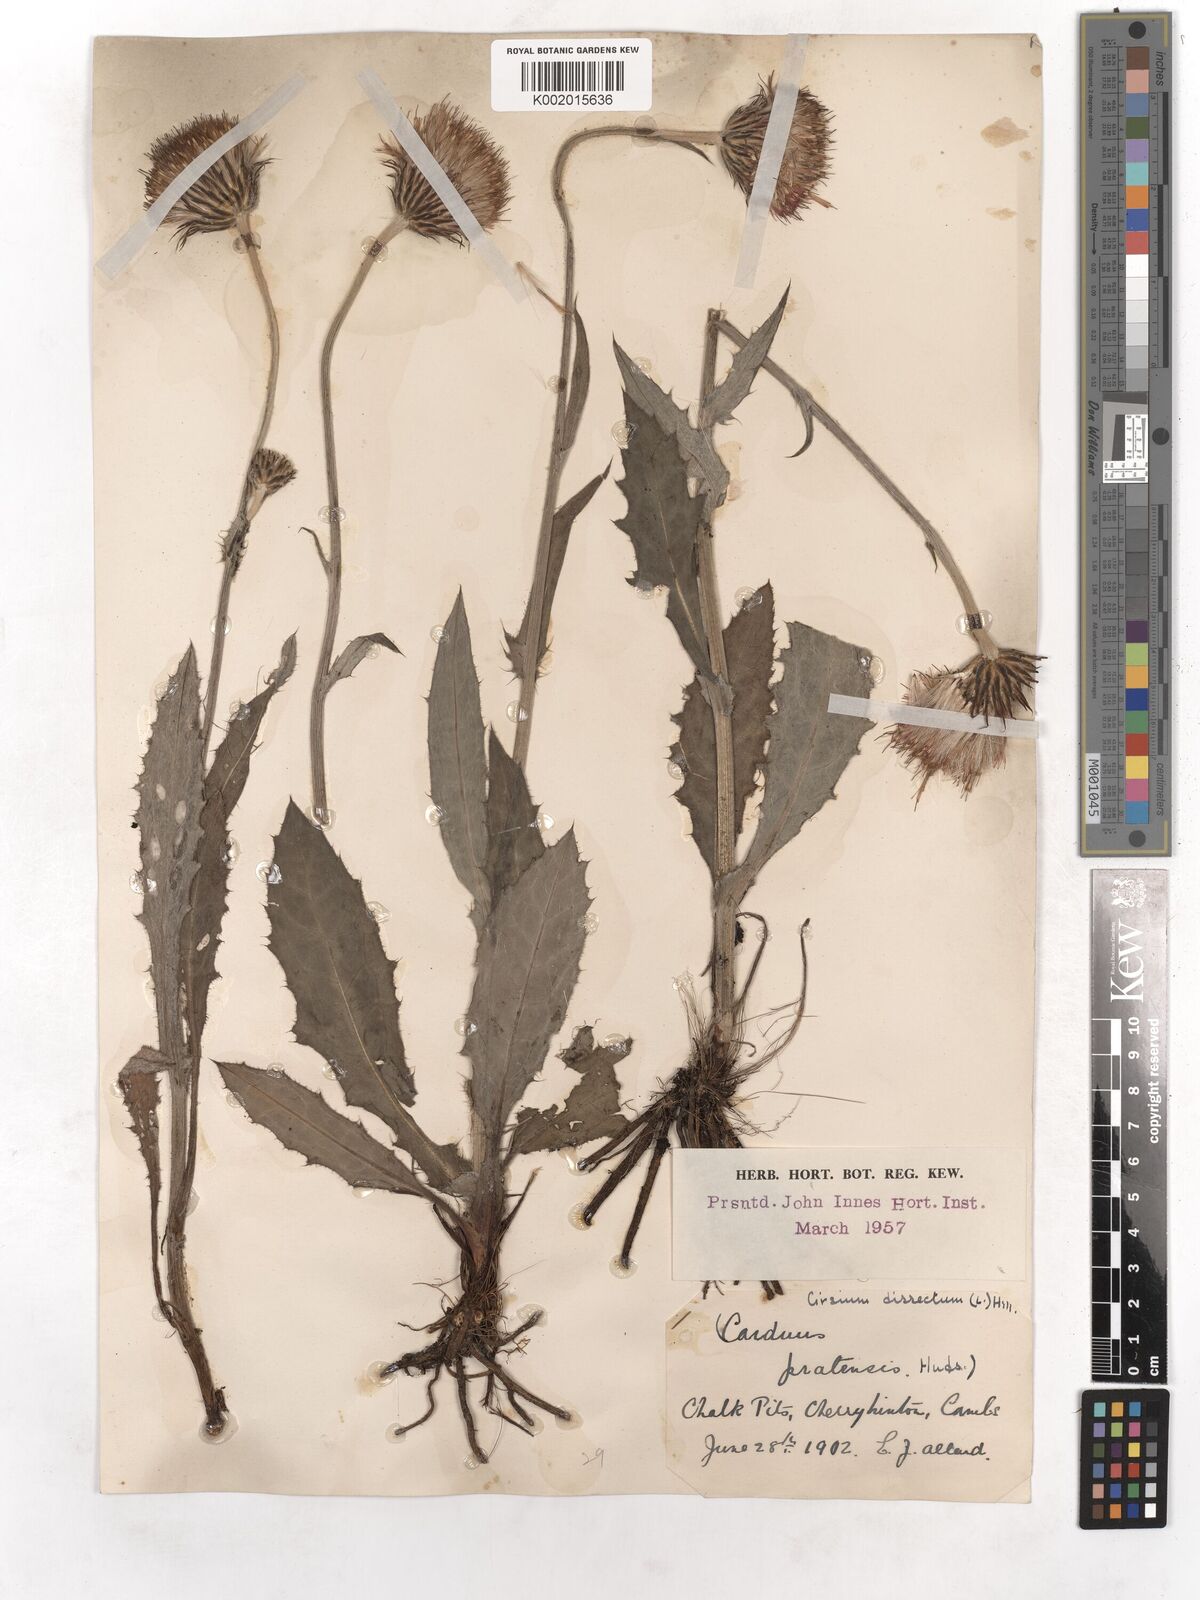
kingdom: Plantae
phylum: Tracheophyta
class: Magnoliopsida
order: Asterales
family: Asteraceae
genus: Cirsium
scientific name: Cirsium dissectum
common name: Meadow thistle
